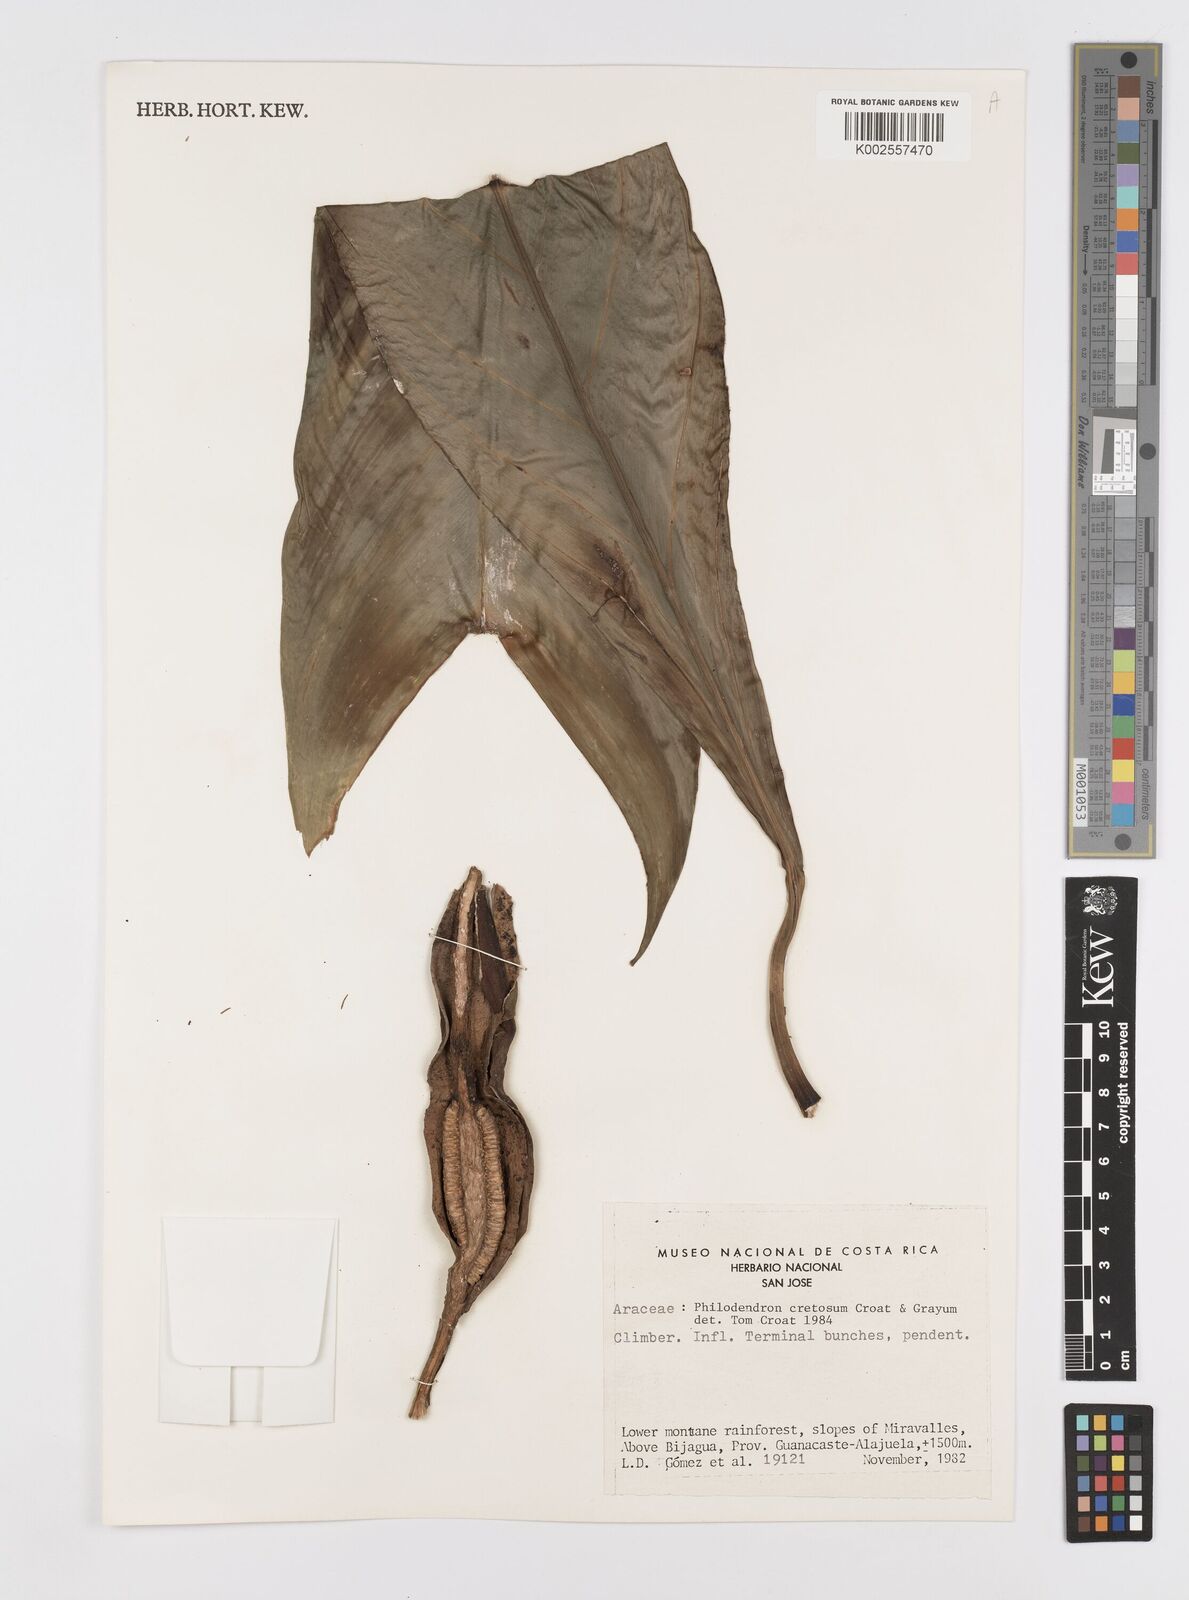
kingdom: Plantae
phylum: Tracheophyta
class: Liliopsida
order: Alismatales
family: Araceae
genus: Philodendron
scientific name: Philodendron cretosum
